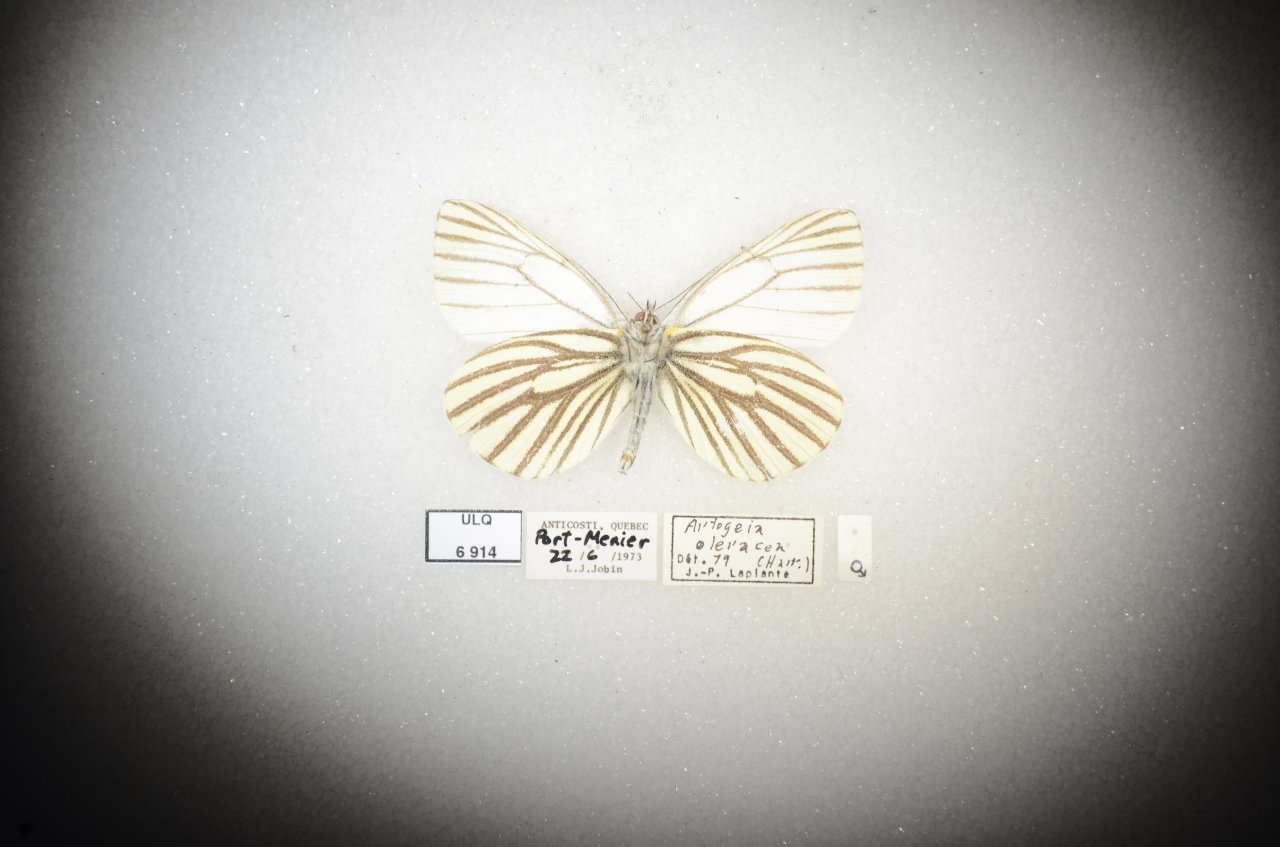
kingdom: Animalia
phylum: Arthropoda
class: Insecta
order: Lepidoptera
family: Pieridae
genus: Pieris
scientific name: Pieris oleracea
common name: Mustard White
